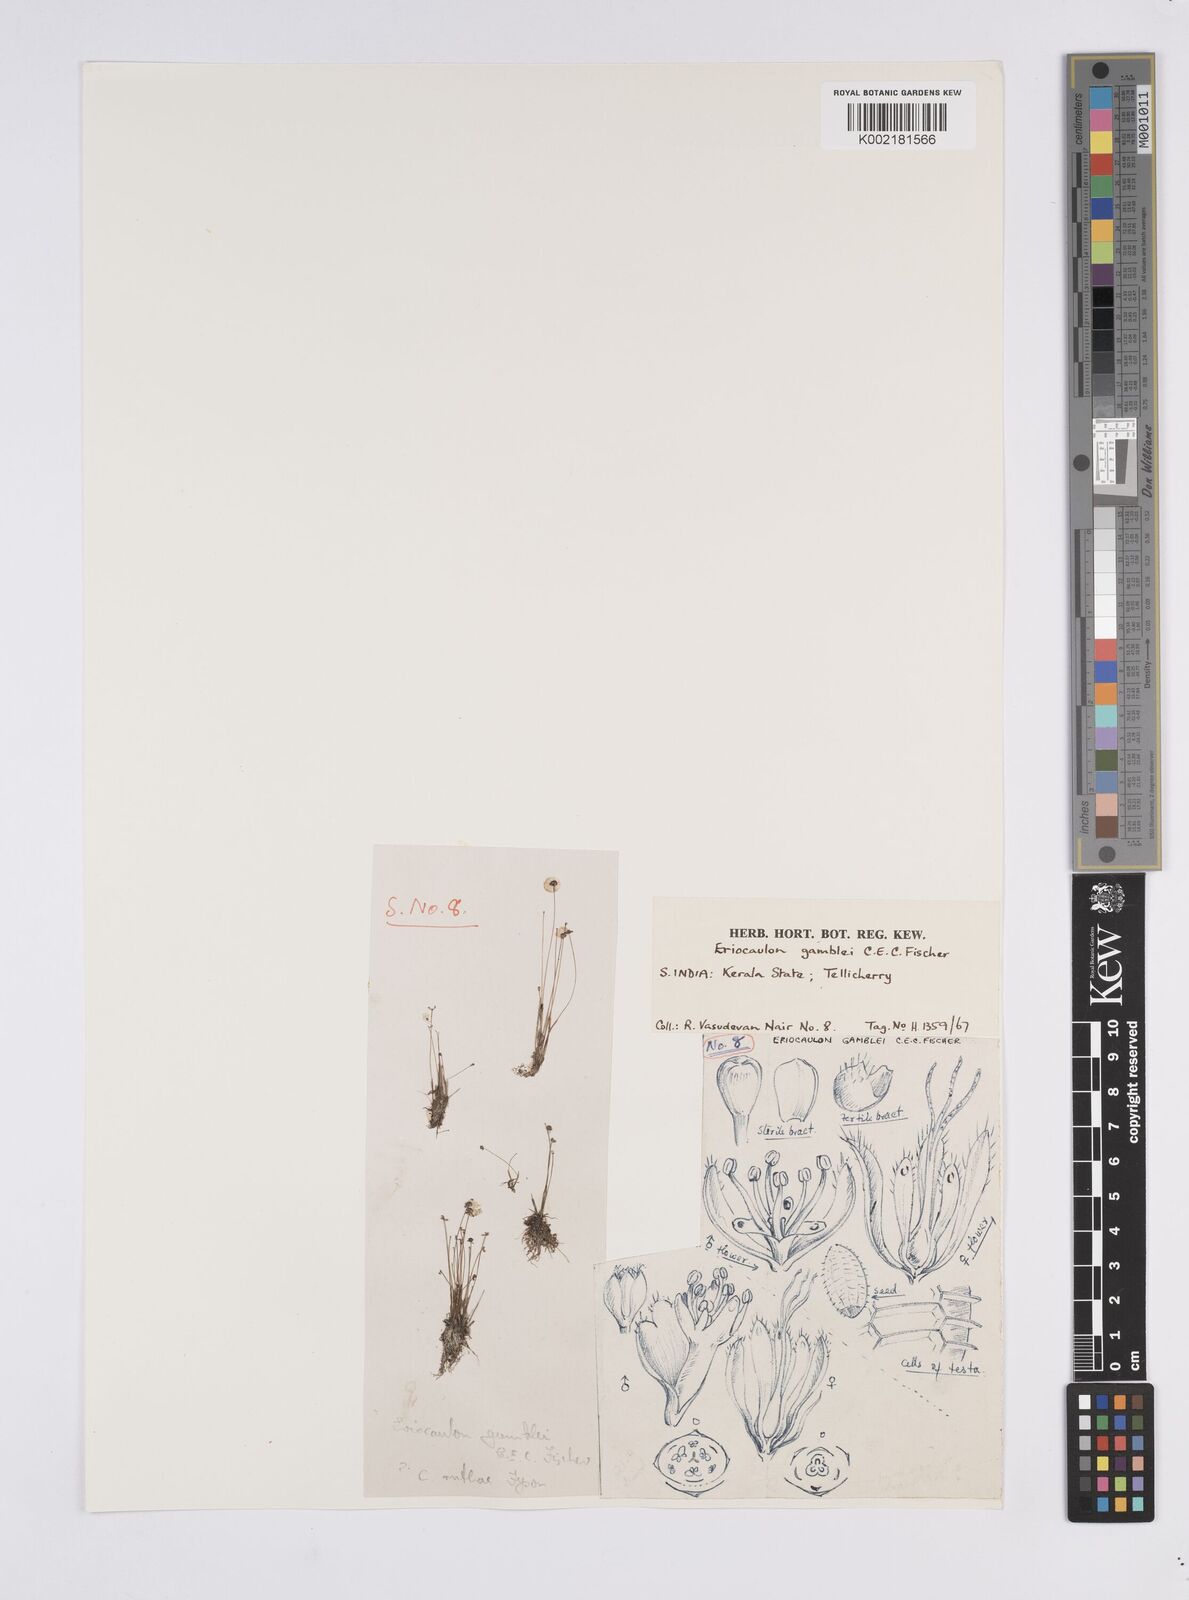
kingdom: Plantae
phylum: Tracheophyta
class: Liliopsida
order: Poales
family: Eriocaulaceae
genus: Eriocaulon
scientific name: Eriocaulon thwaitesii
